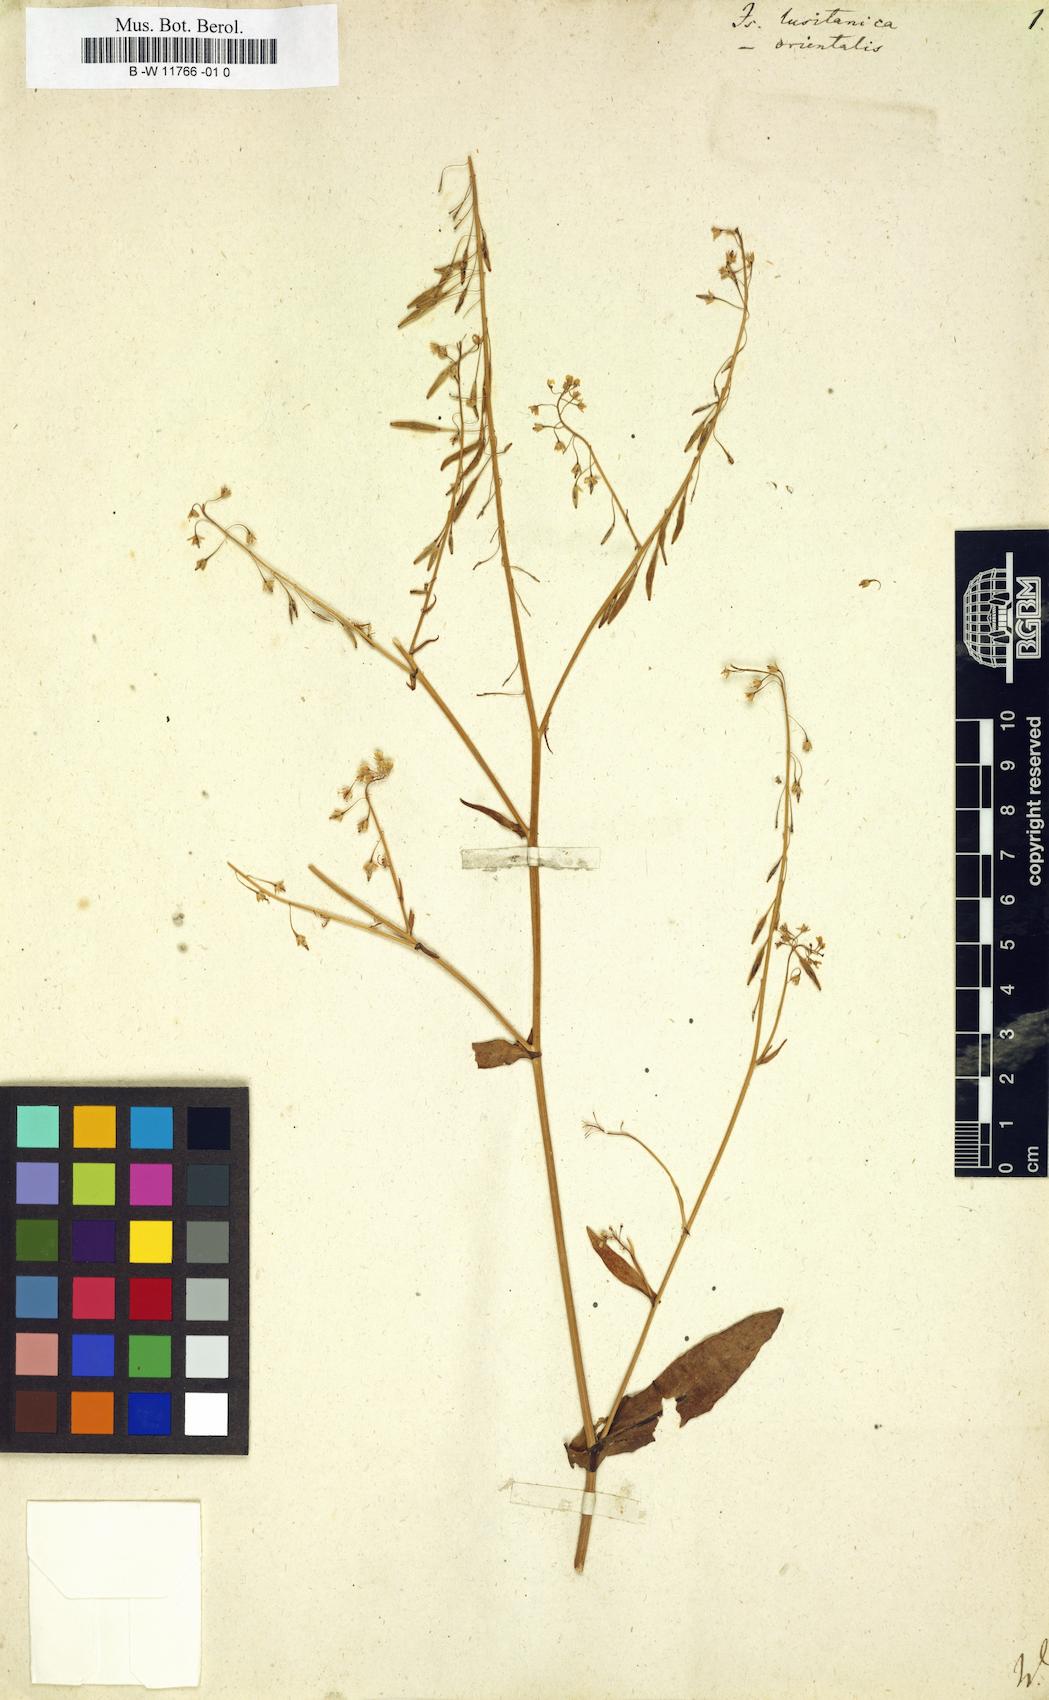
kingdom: Plantae
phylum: Tracheophyta
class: Magnoliopsida
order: Brassicales
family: Brassicaceae
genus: Isatis
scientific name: Isatis lusitanica
